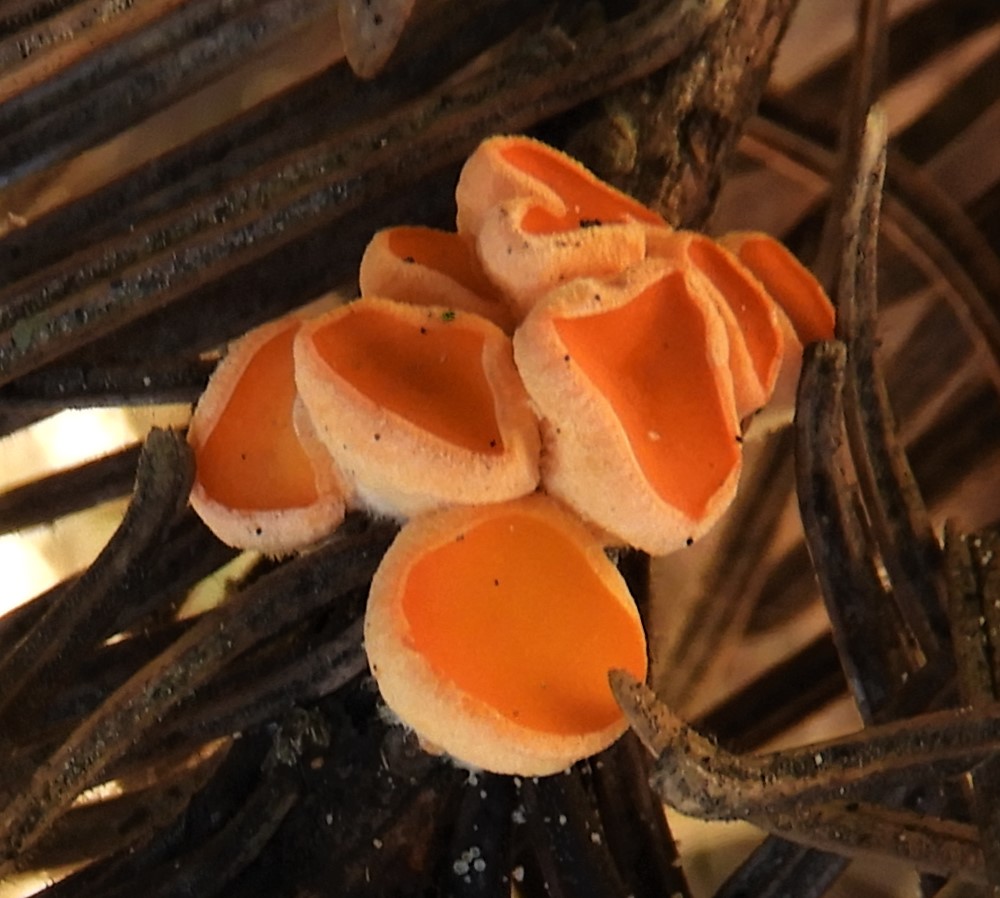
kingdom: Fungi
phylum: Ascomycota
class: Pezizomycetes
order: Pezizales
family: Sarcoscyphaceae
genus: Pithya
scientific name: Pithya vulgaris
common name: stor dukatbæger
